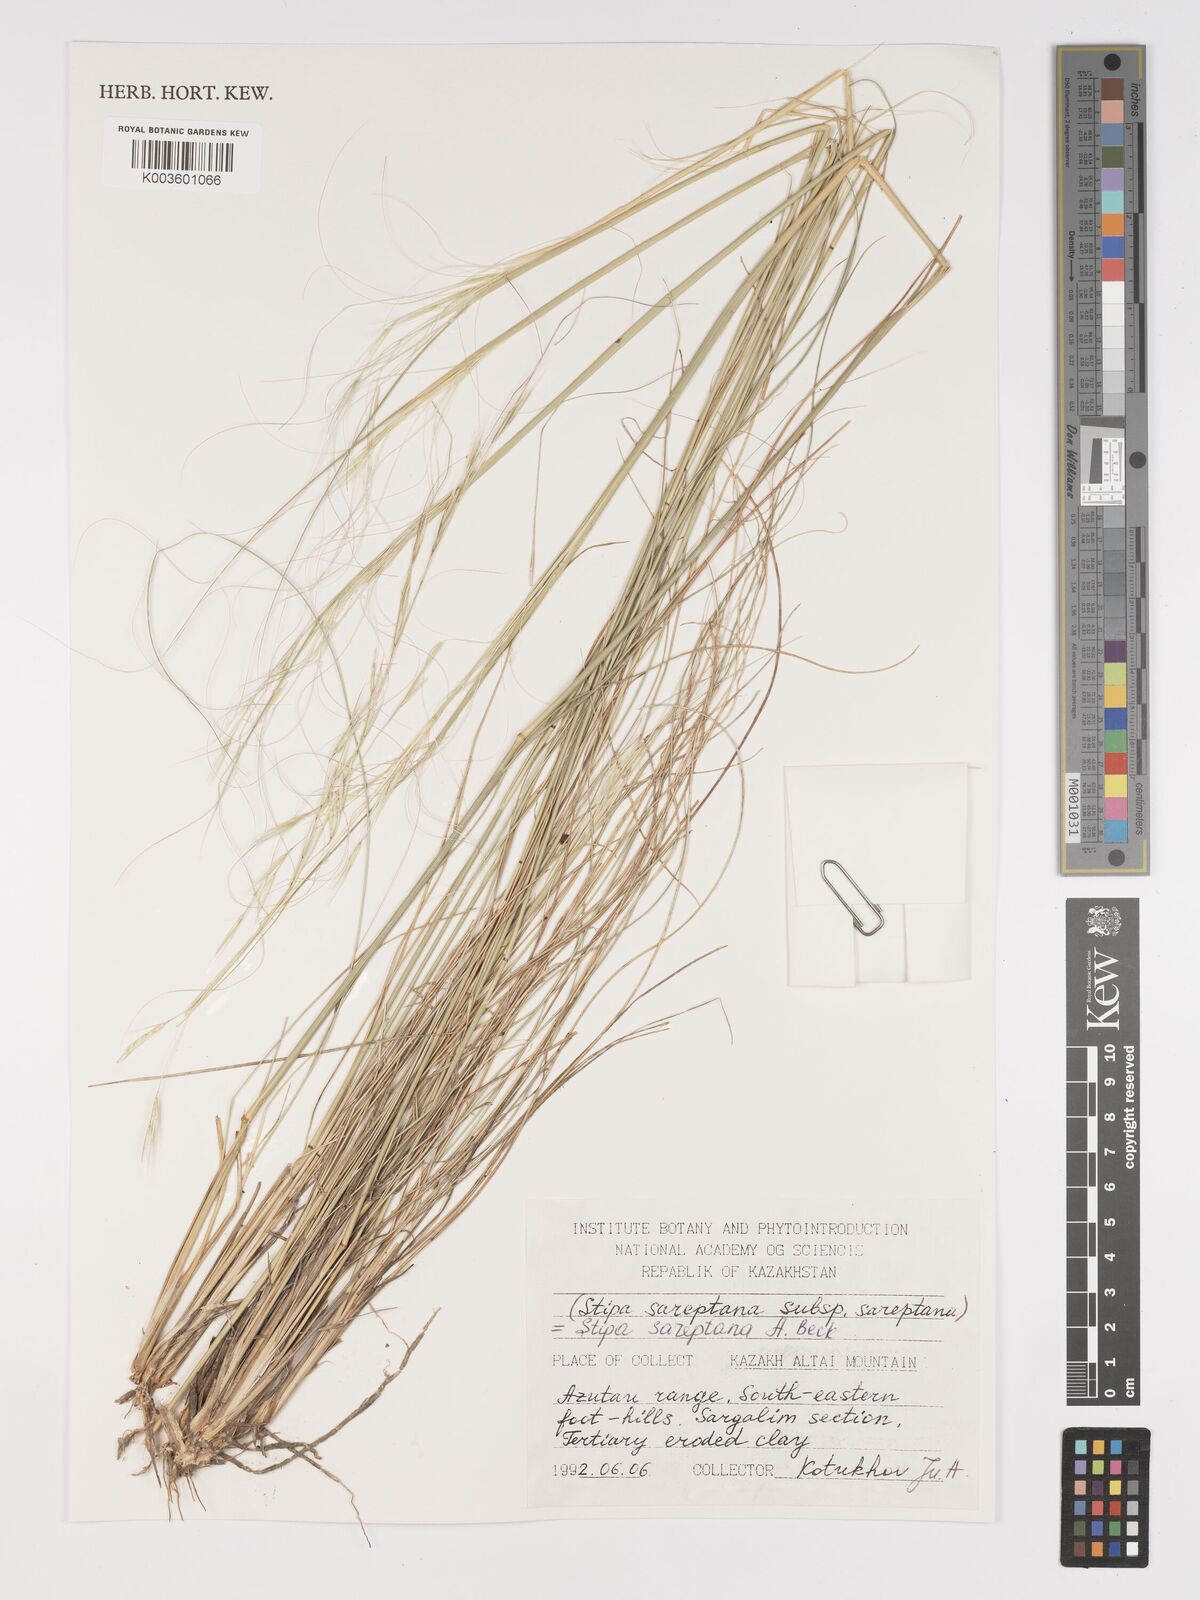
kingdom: Plantae
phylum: Tracheophyta
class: Liliopsida
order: Poales
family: Poaceae
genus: Stipa
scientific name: Stipa sareptana
